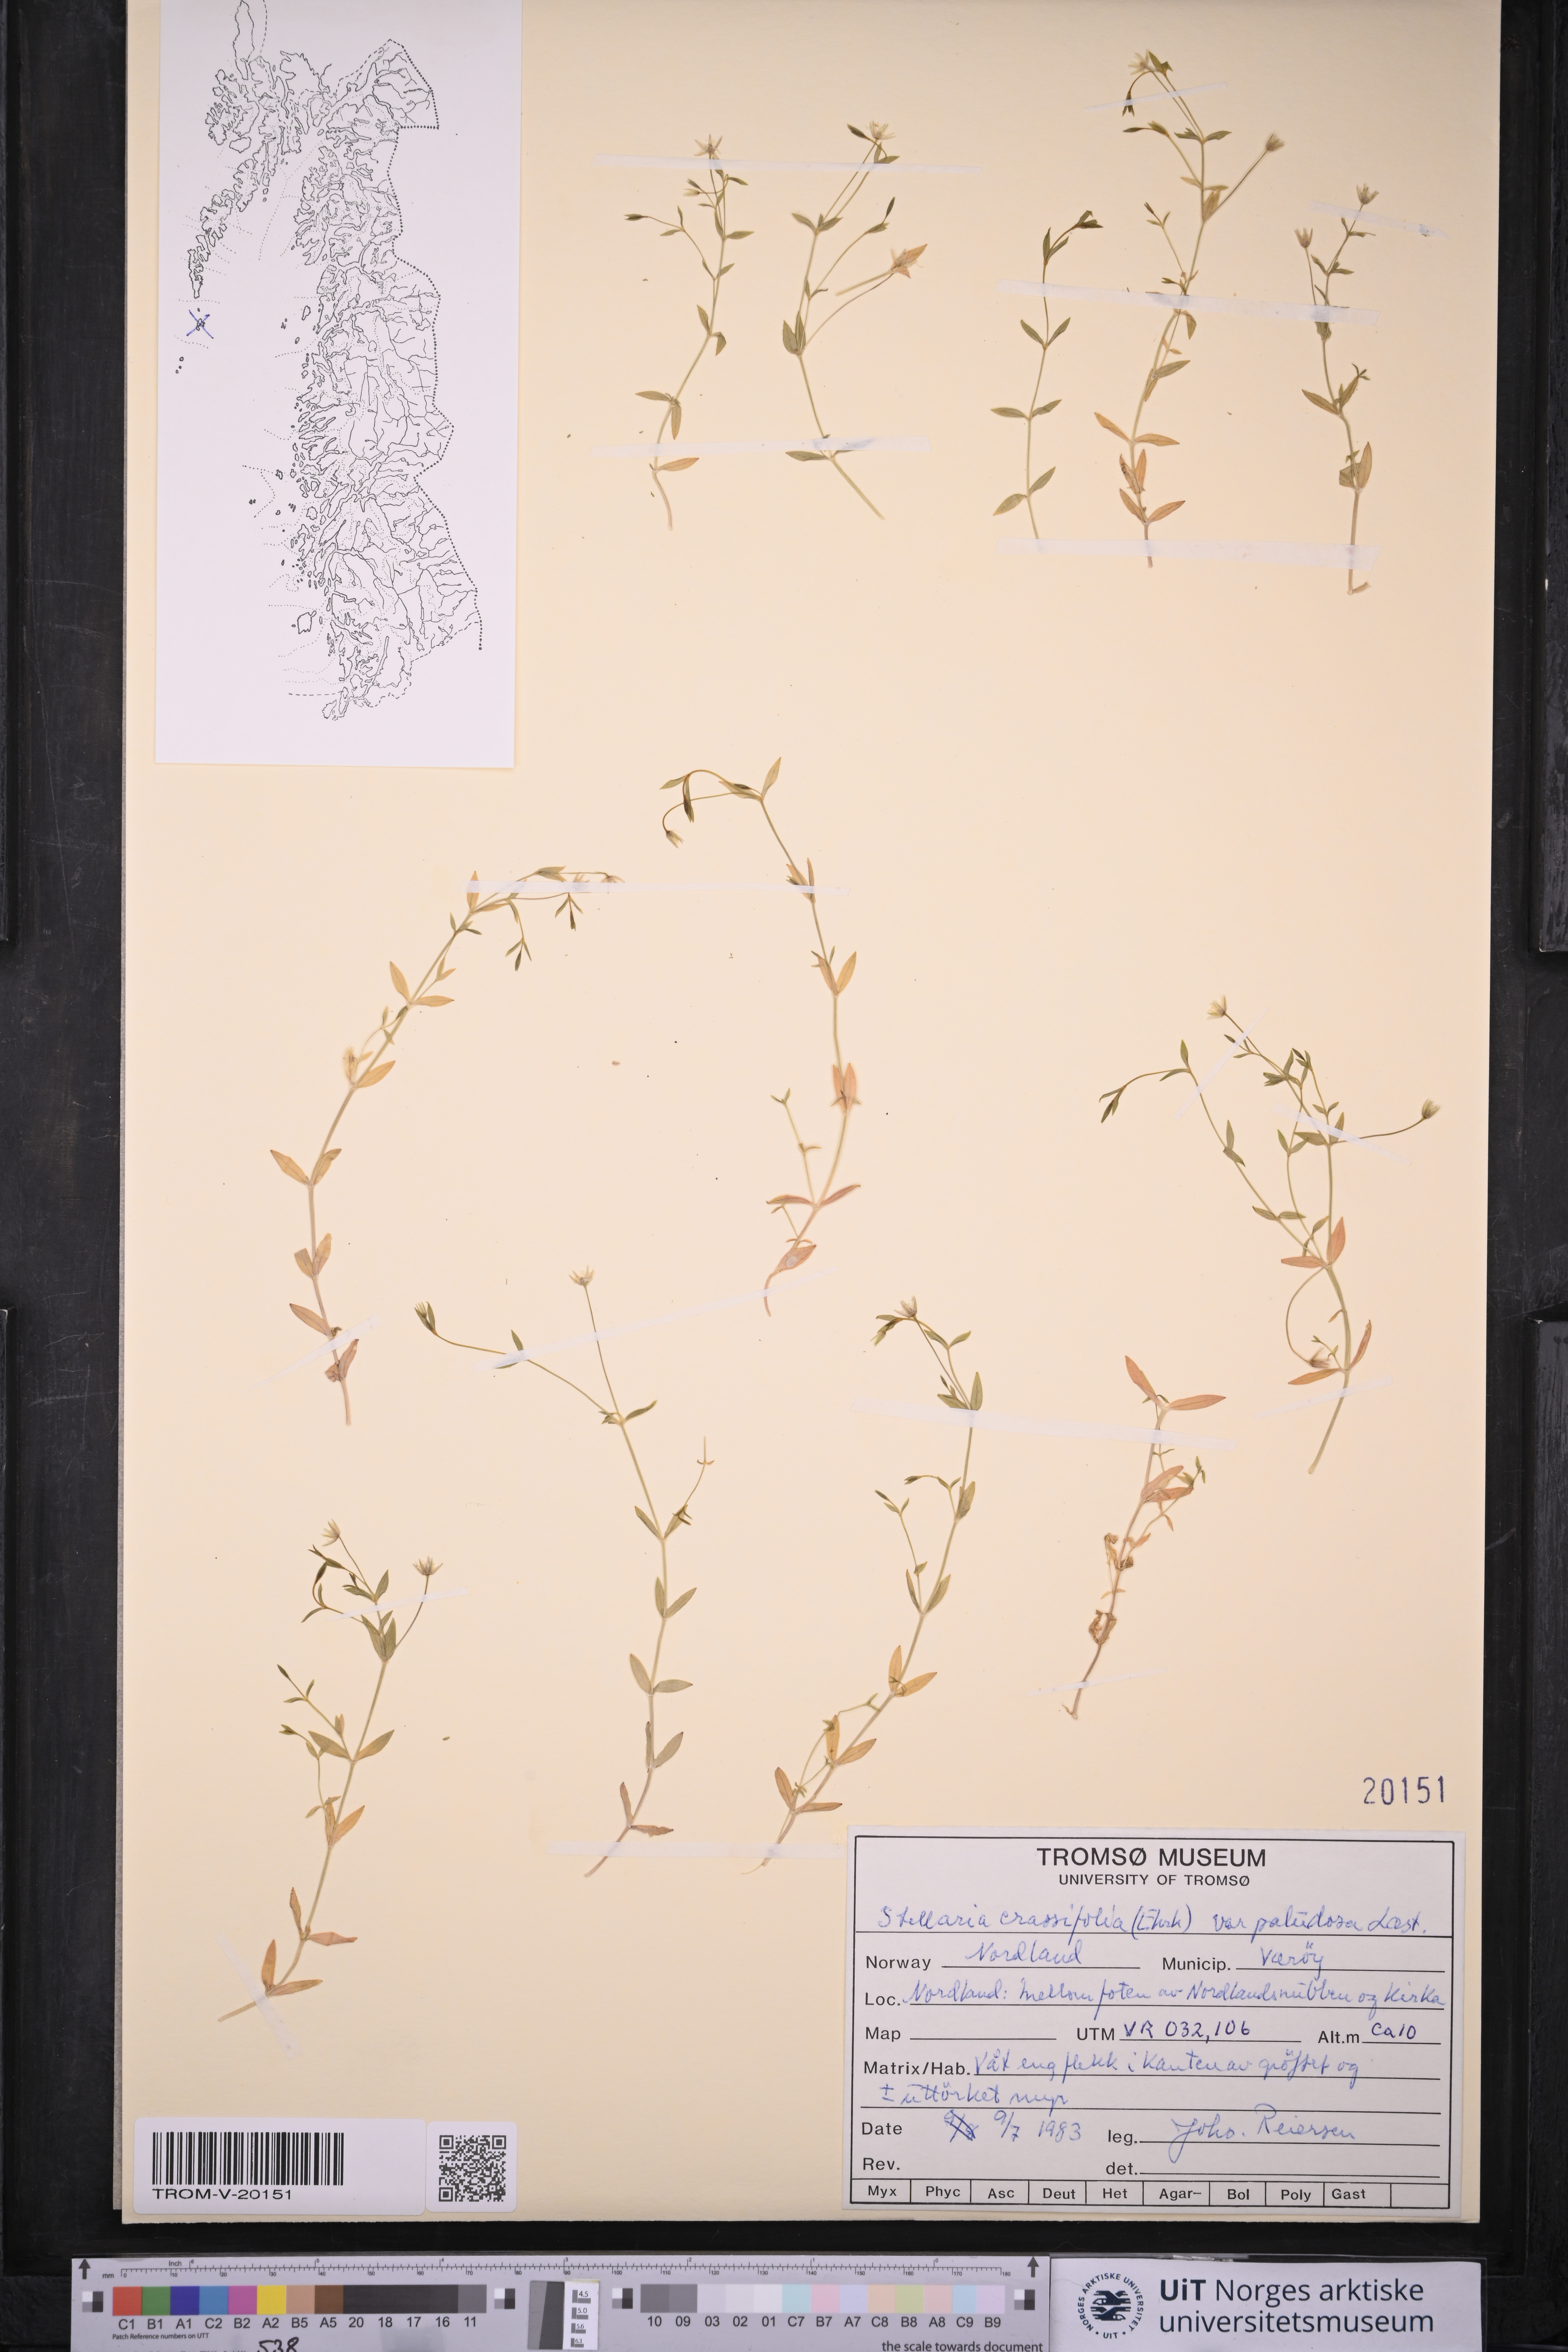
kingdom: Plantae
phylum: Tracheophyta
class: Magnoliopsida
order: Caryophyllales
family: Caryophyllaceae
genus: Stellaria
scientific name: Stellaria crassifolia
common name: Fleshy starwort
